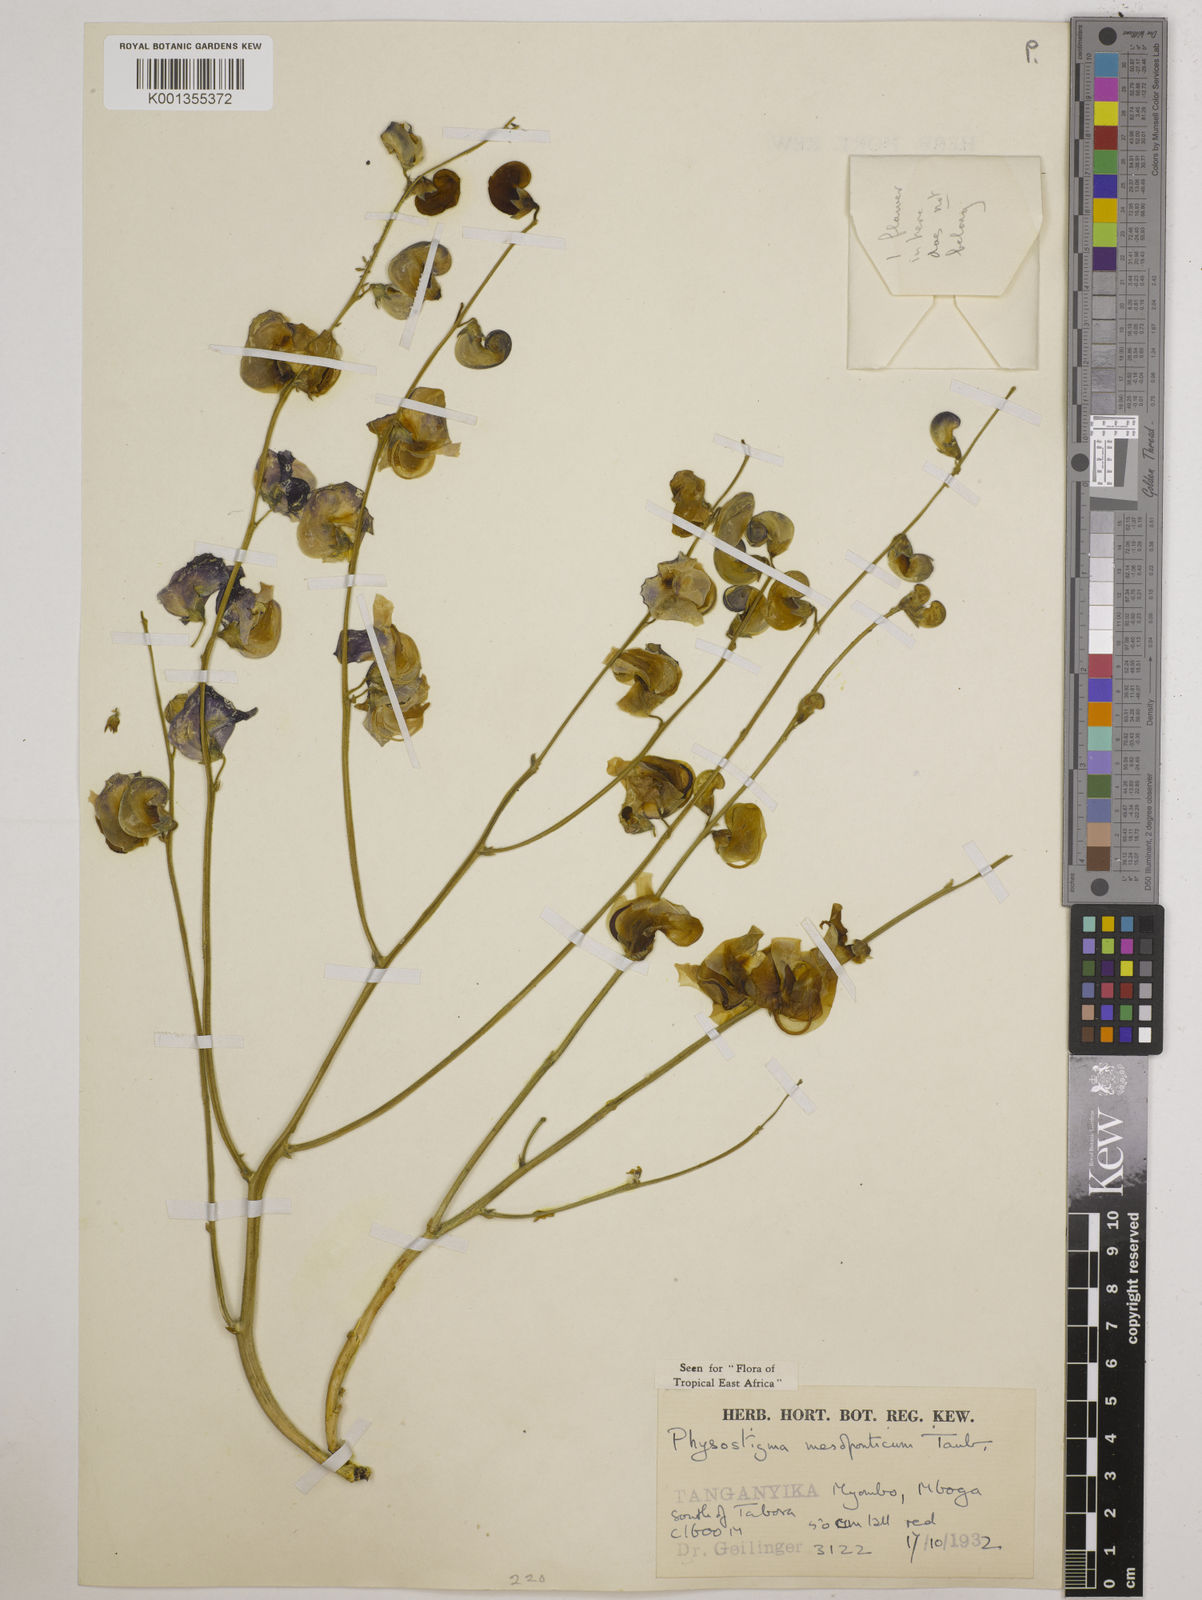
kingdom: Plantae
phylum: Tracheophyta
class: Magnoliopsida
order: Fabales
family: Fabaceae
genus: Physostigma
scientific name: Physostigma mesoponticum
